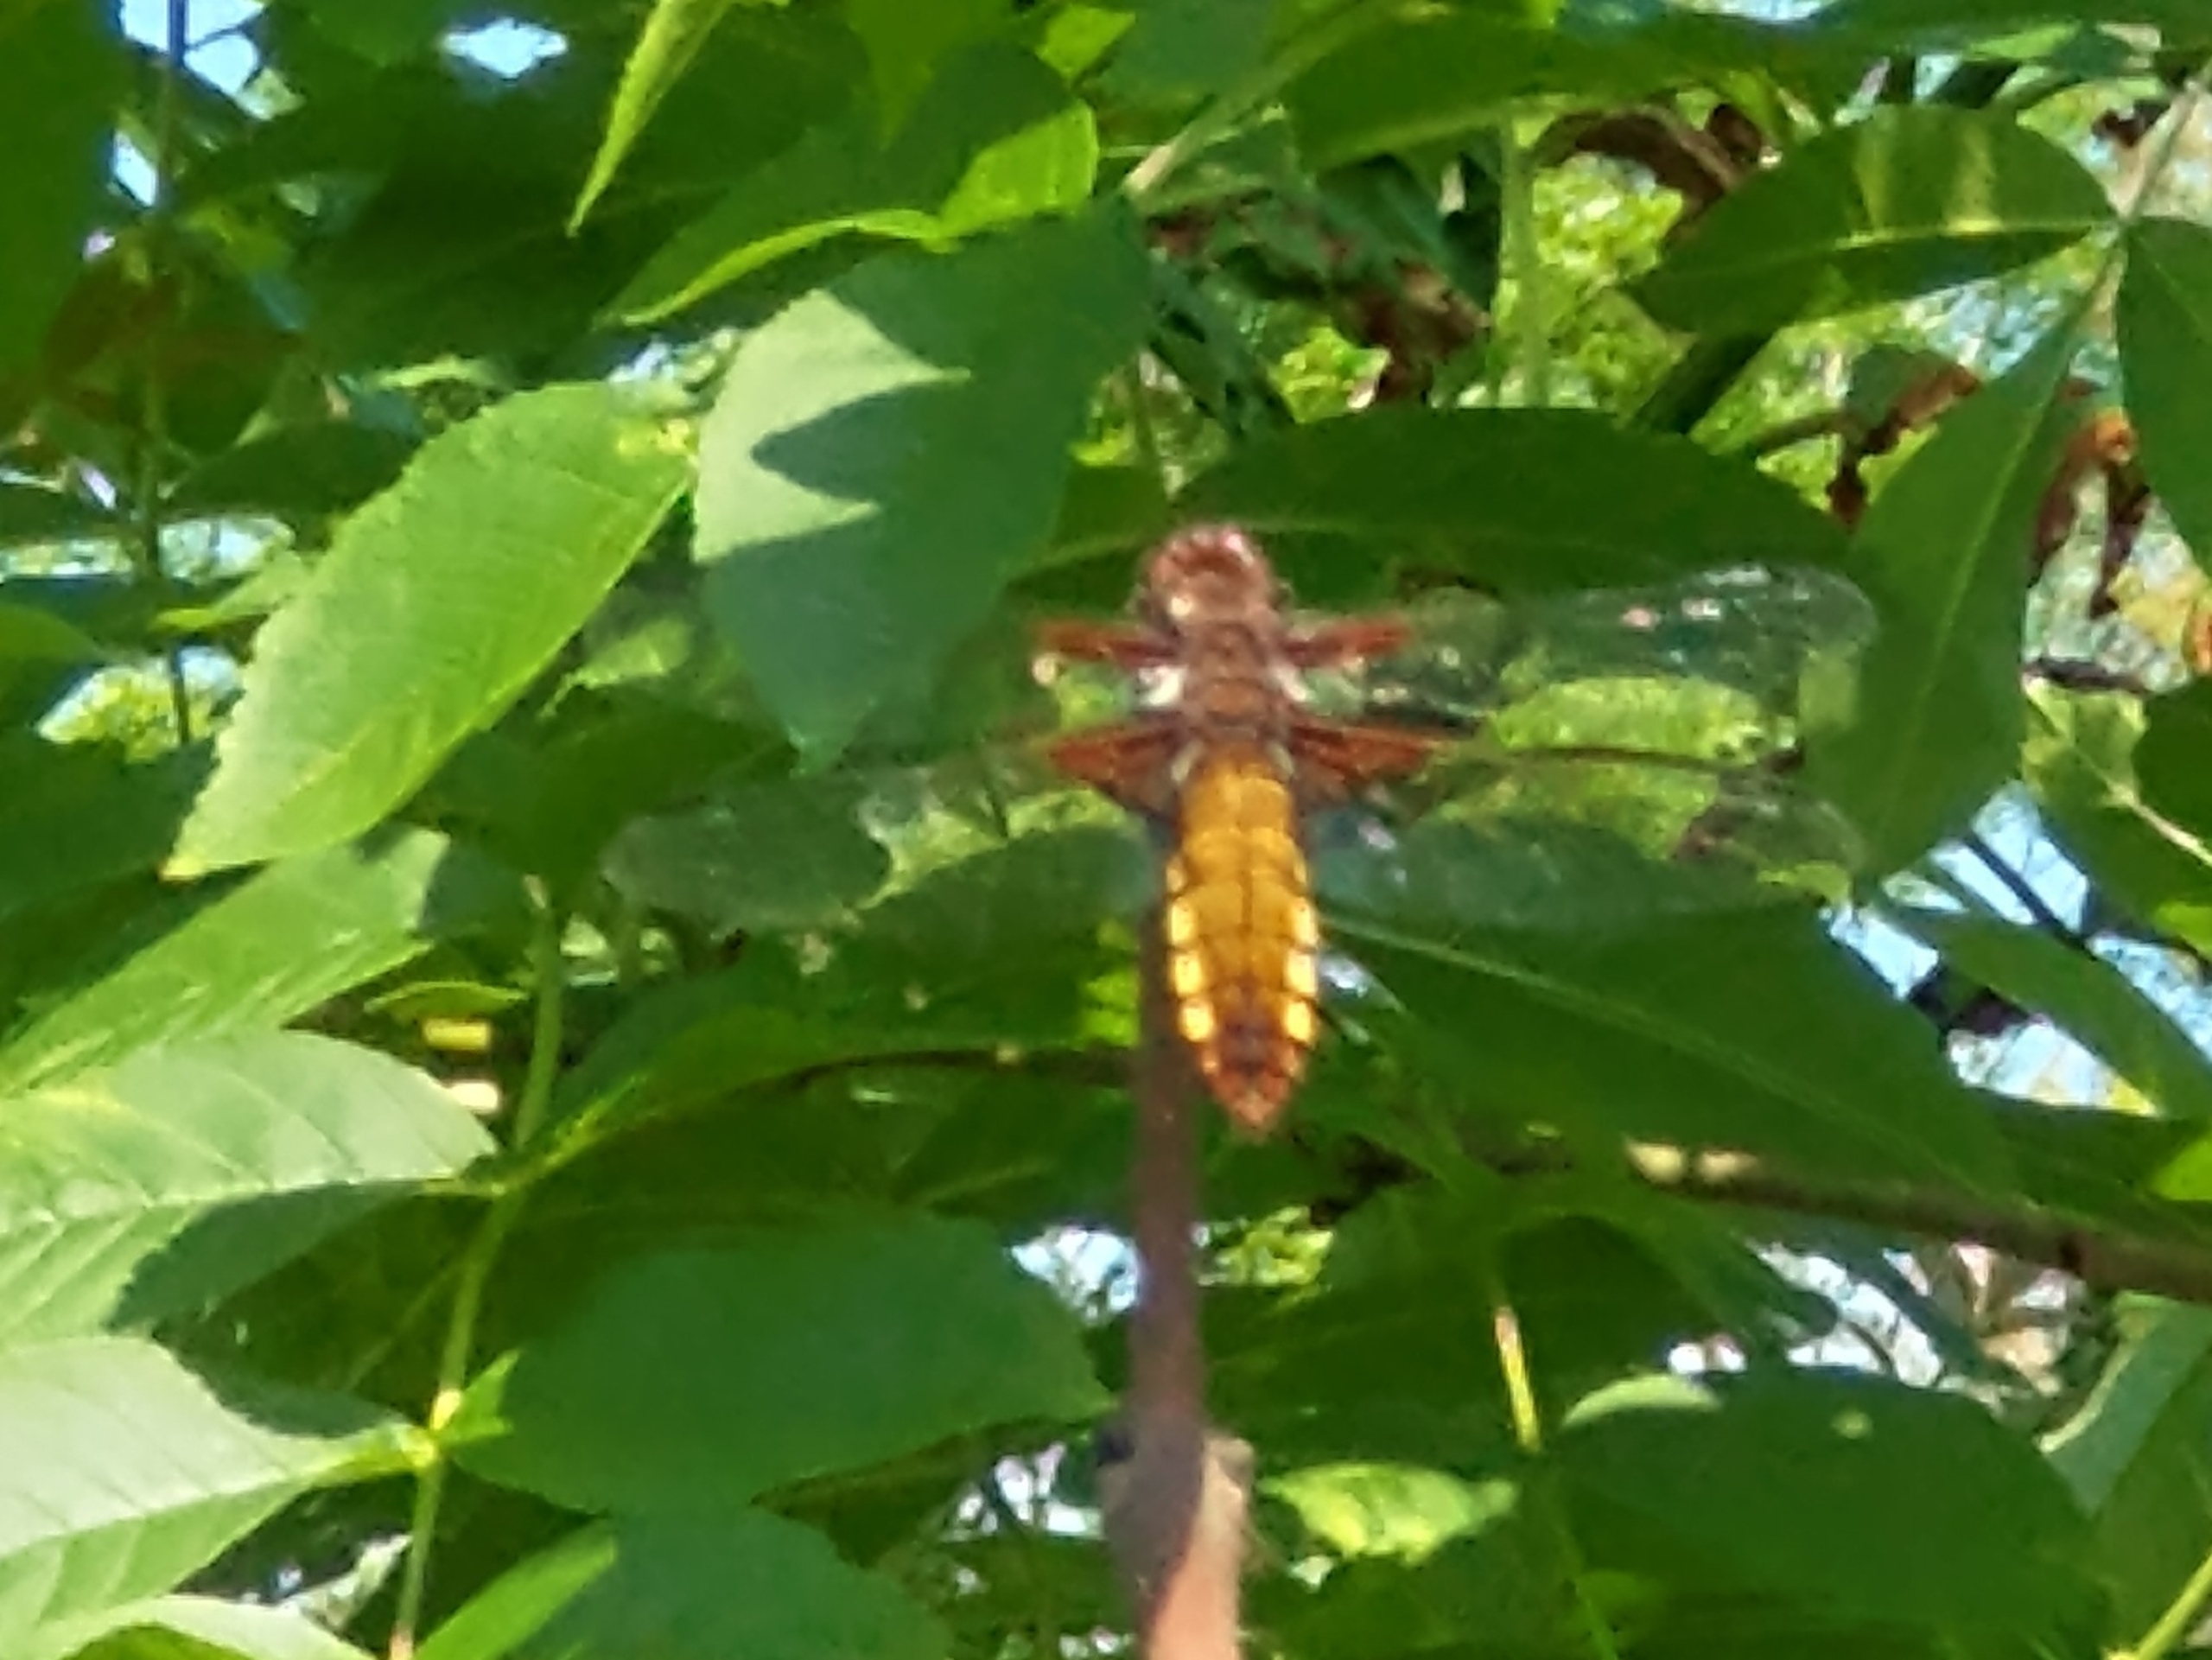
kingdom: Animalia
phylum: Arthropoda
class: Insecta
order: Odonata
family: Libellulidae
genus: Libellula
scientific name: Libellula depressa
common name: Blå libel
